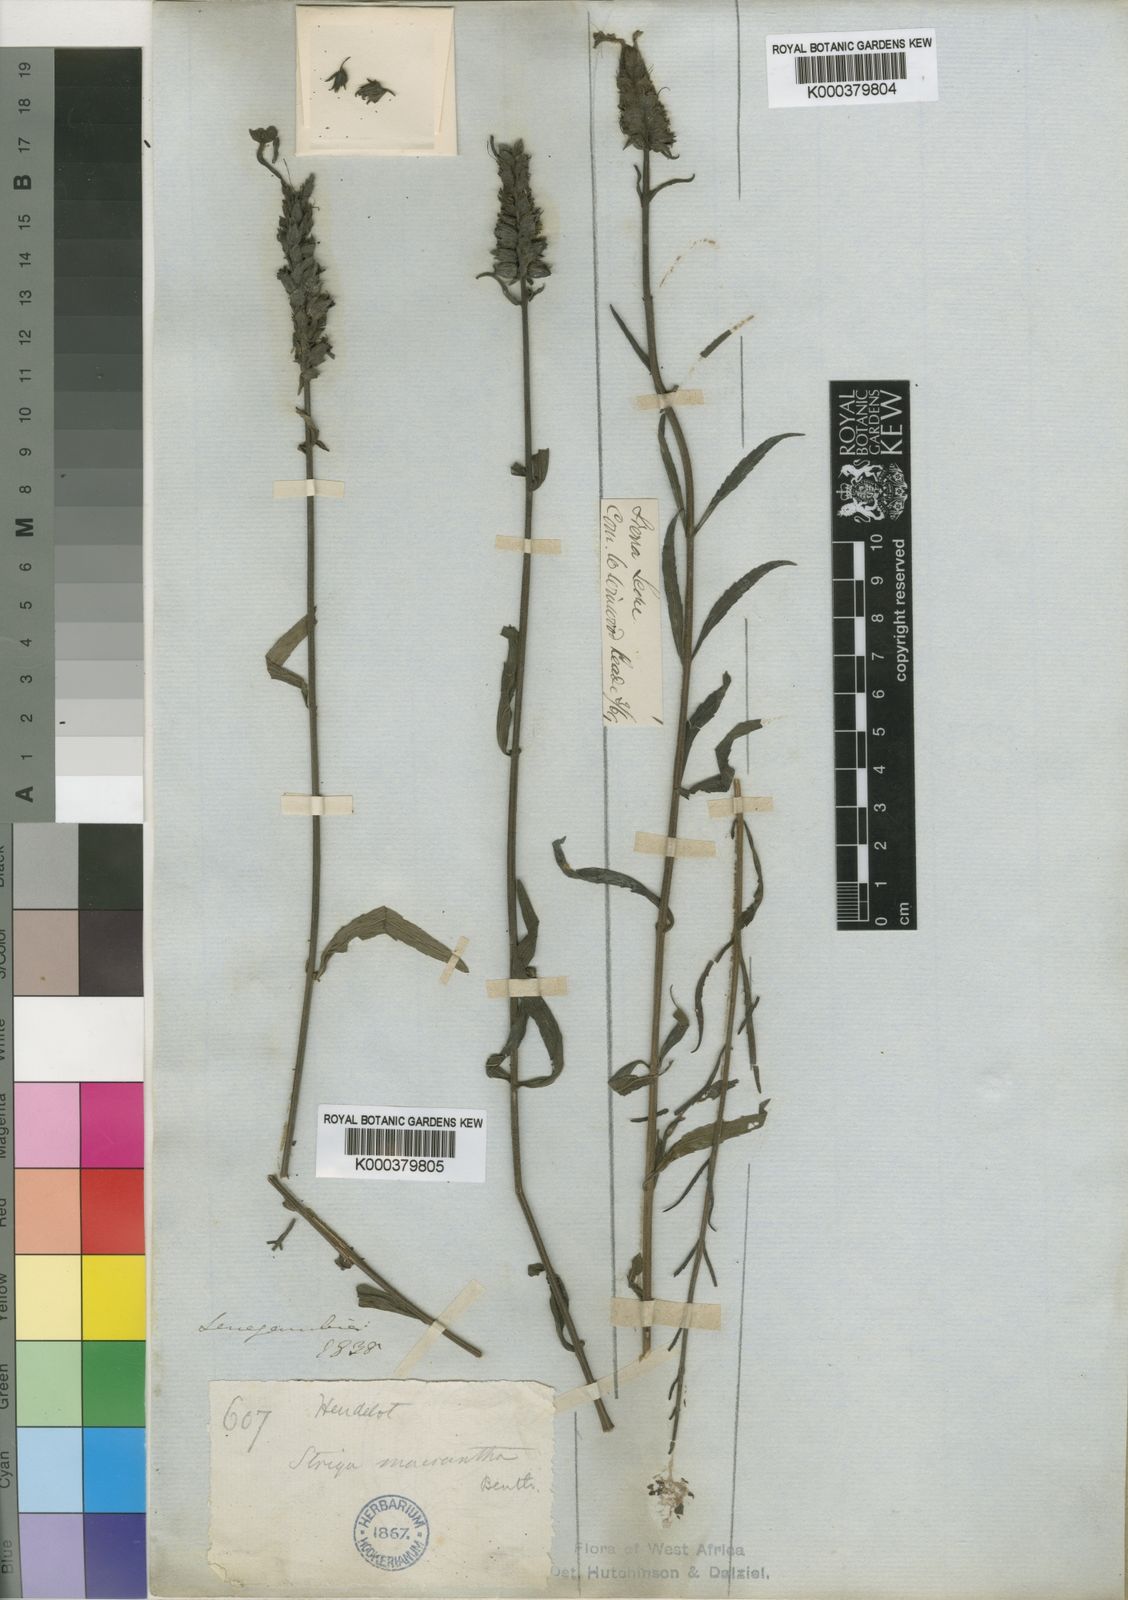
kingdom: Plantae
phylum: Tracheophyta
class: Magnoliopsida
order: Lamiales
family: Orobanchaceae
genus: Striga
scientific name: Striga macrantha
